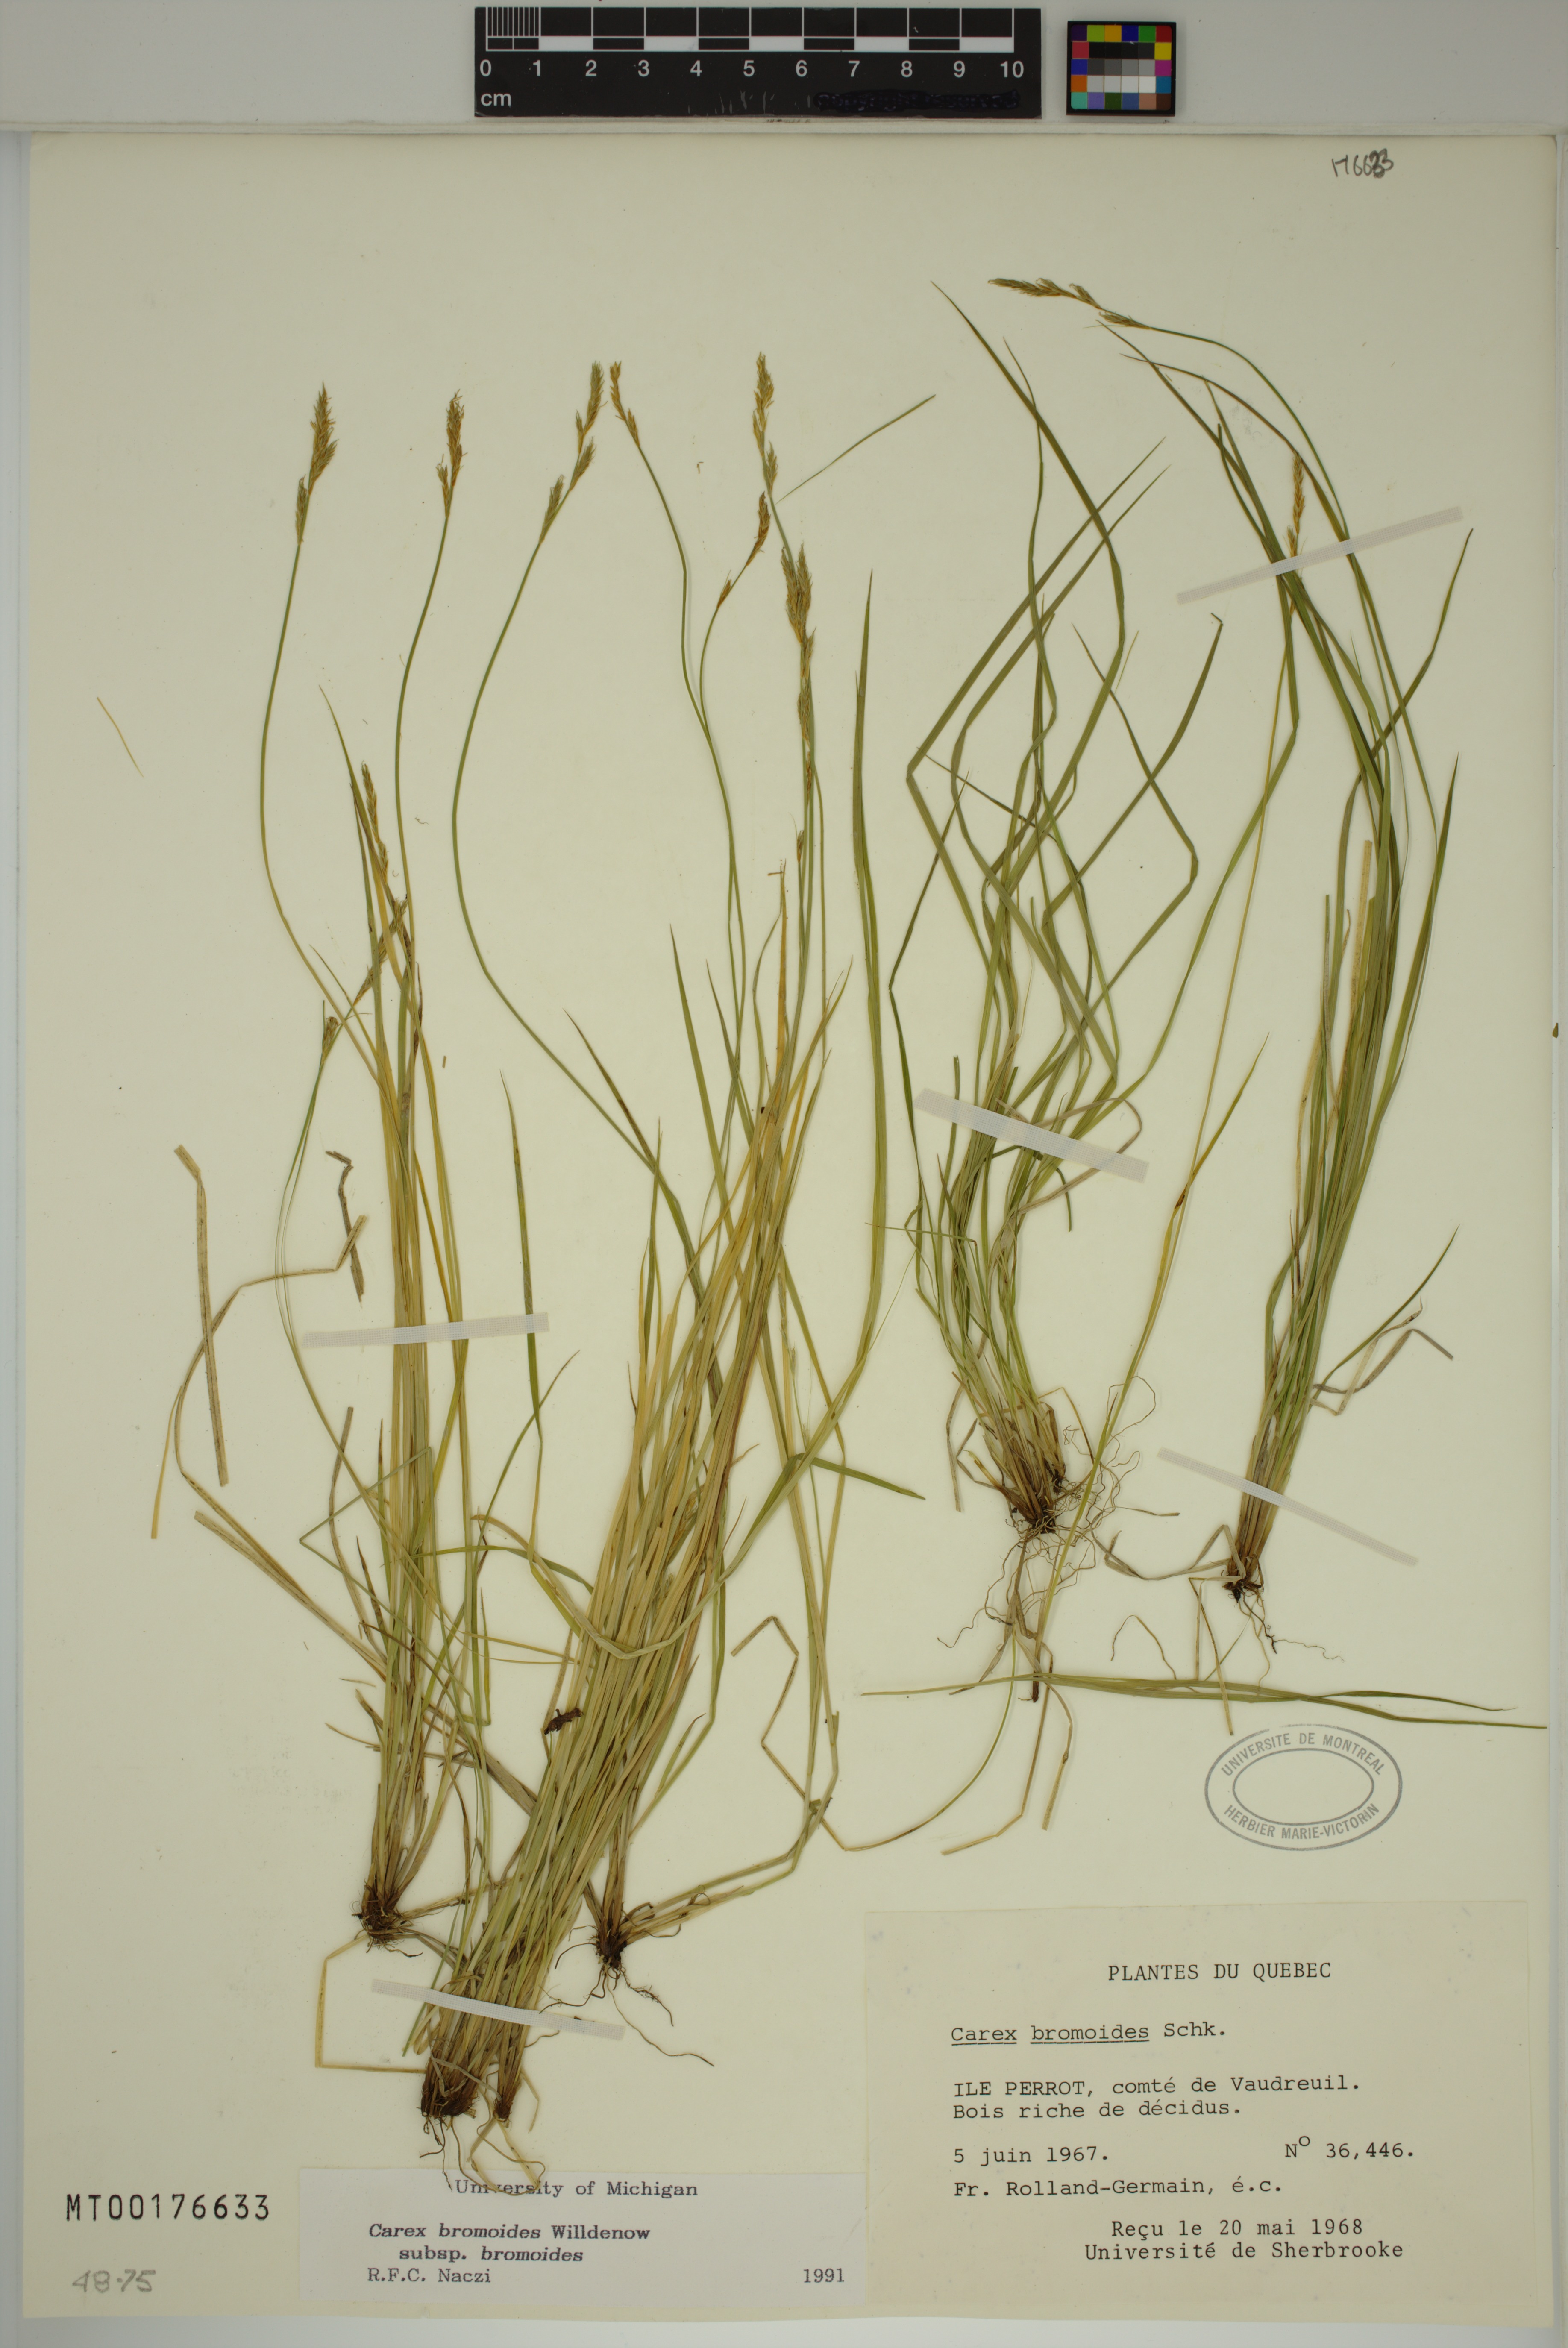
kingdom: Plantae
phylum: Tracheophyta
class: Liliopsida
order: Poales
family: Cyperaceae
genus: Carex
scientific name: Carex bromoides
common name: Brome hummock sedge
